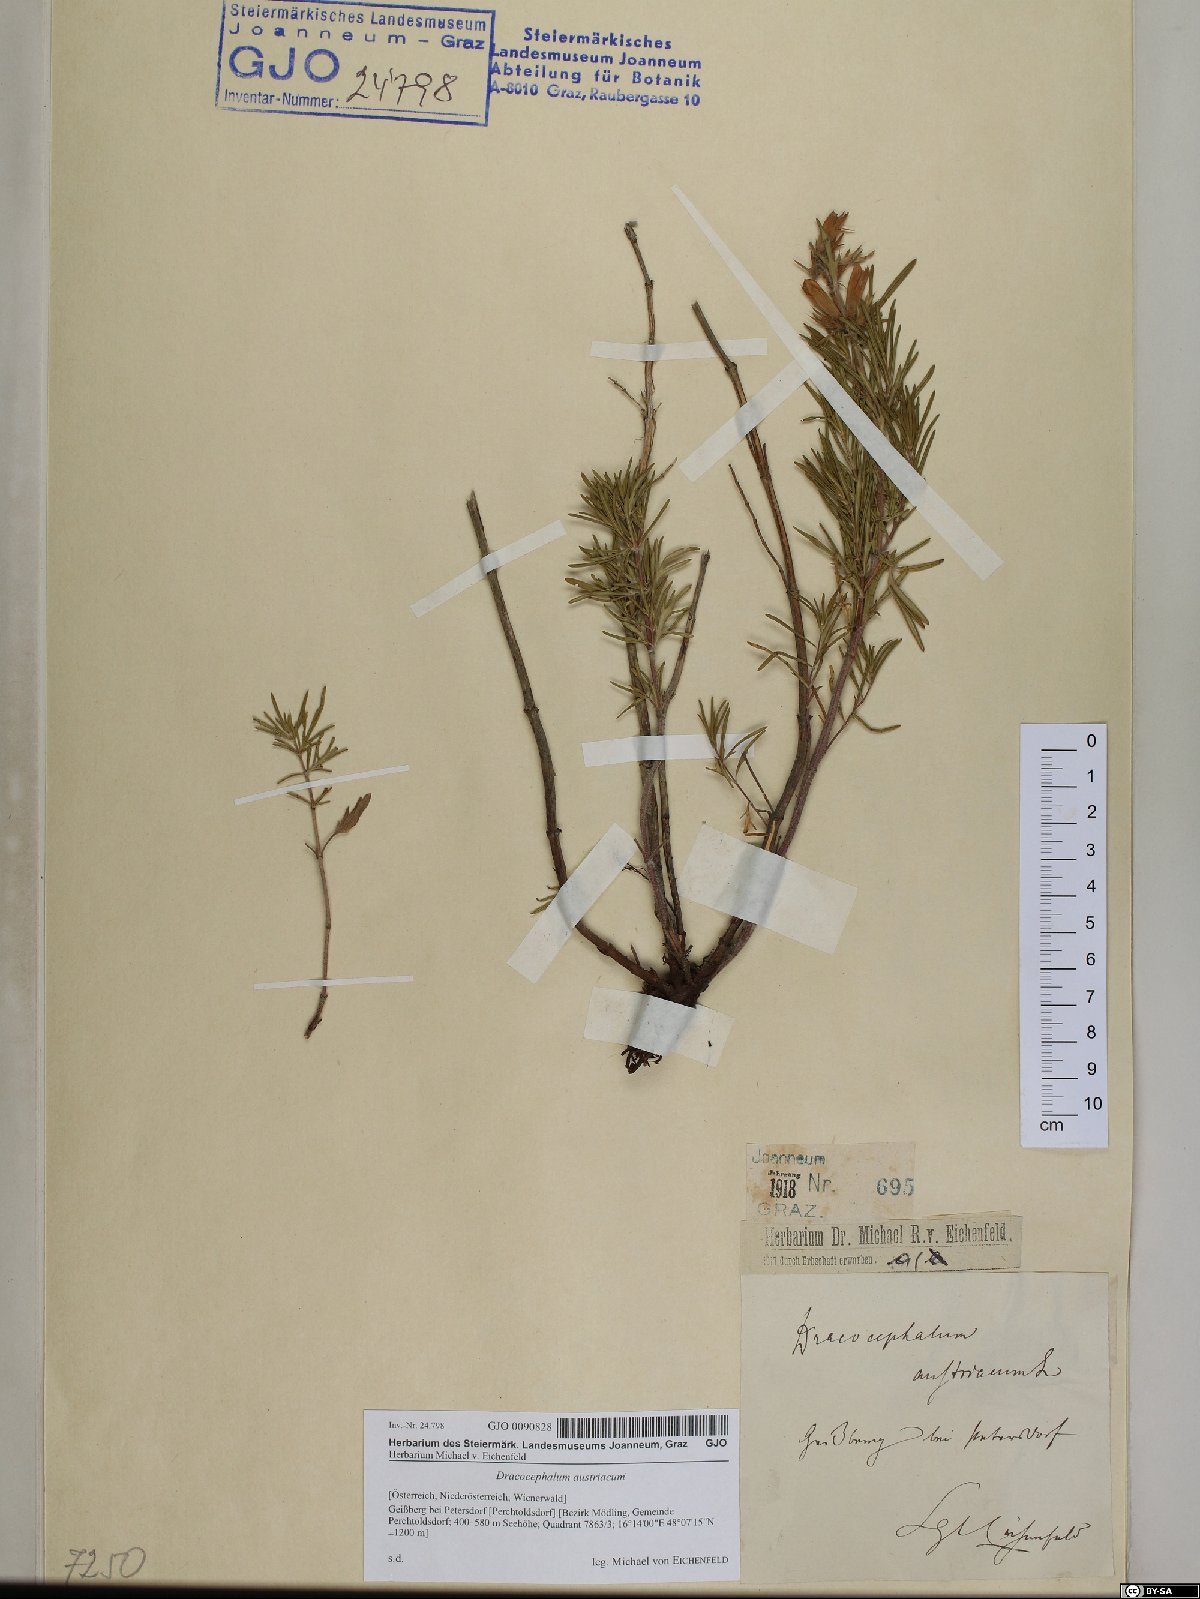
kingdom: Plantae
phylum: Tracheophyta
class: Magnoliopsida
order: Lamiales
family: Lamiaceae
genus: Dracocephalum
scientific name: Dracocephalum austriacum
